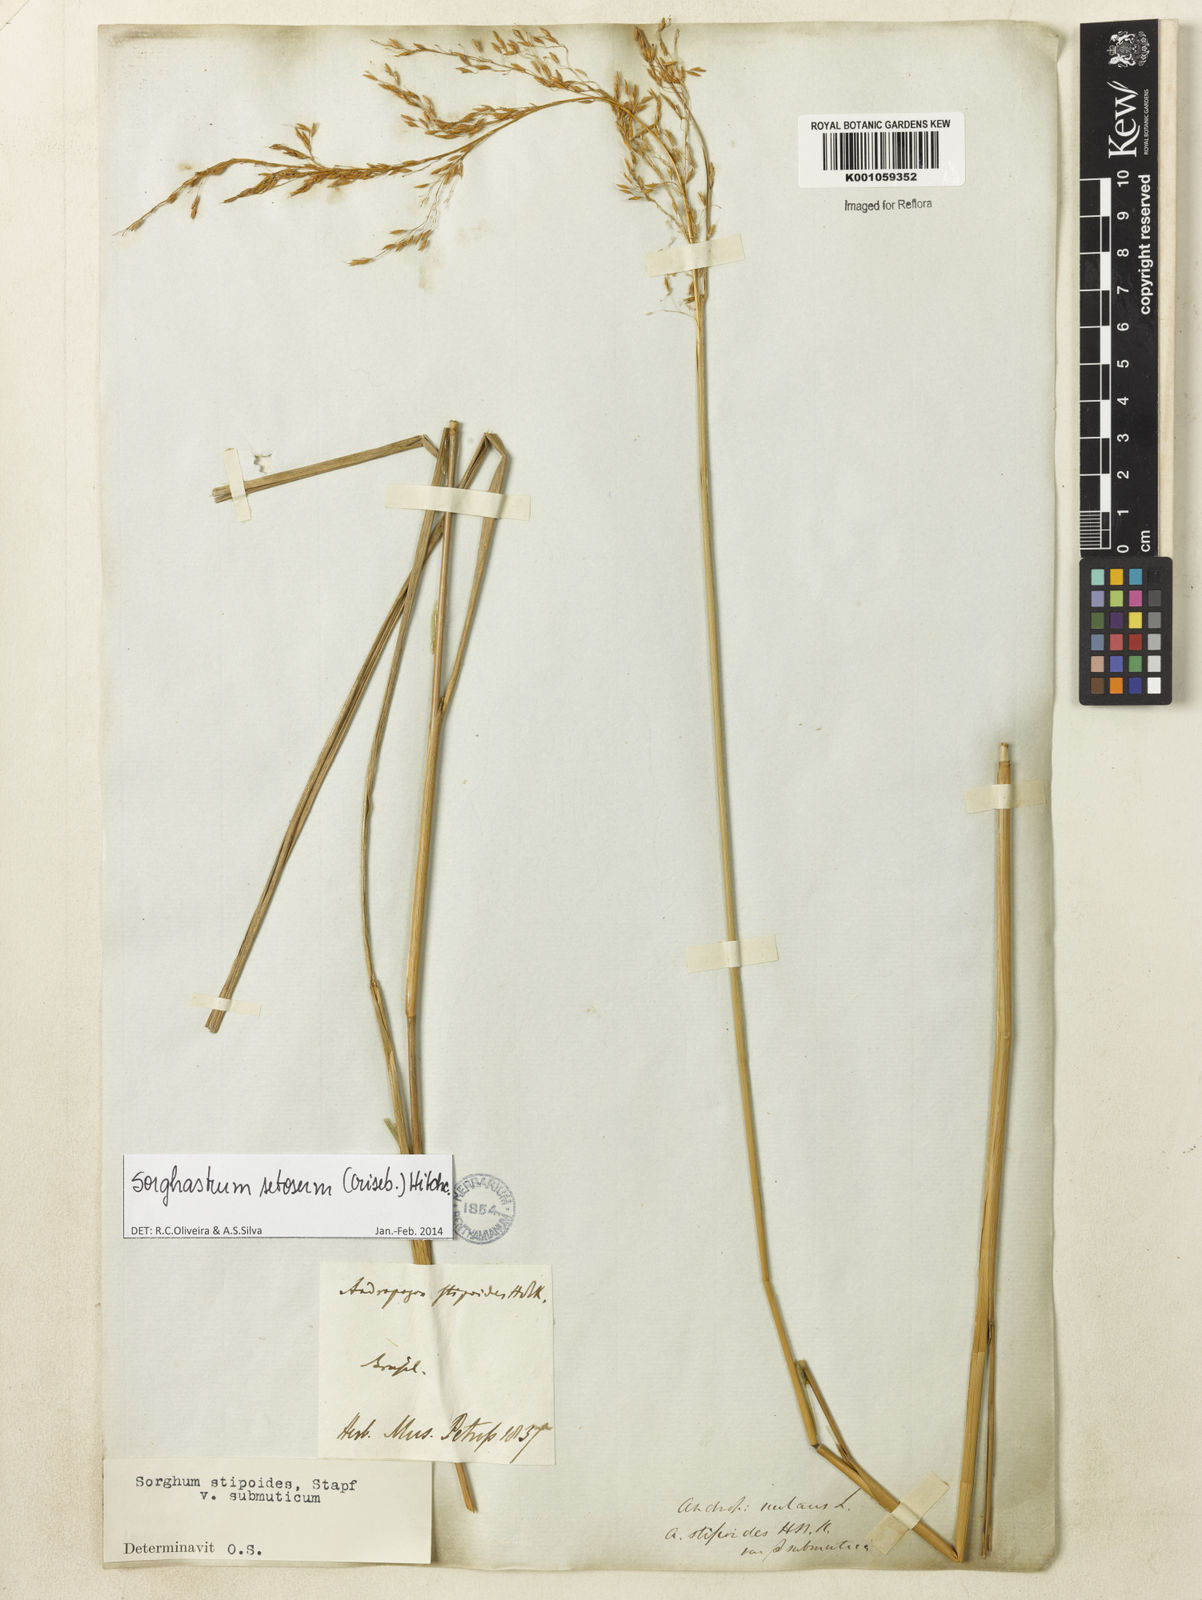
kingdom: Plantae
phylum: Tracheophyta
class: Liliopsida
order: Poales
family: Poaceae
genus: Sorghastrum
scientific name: Sorghastrum setosum
